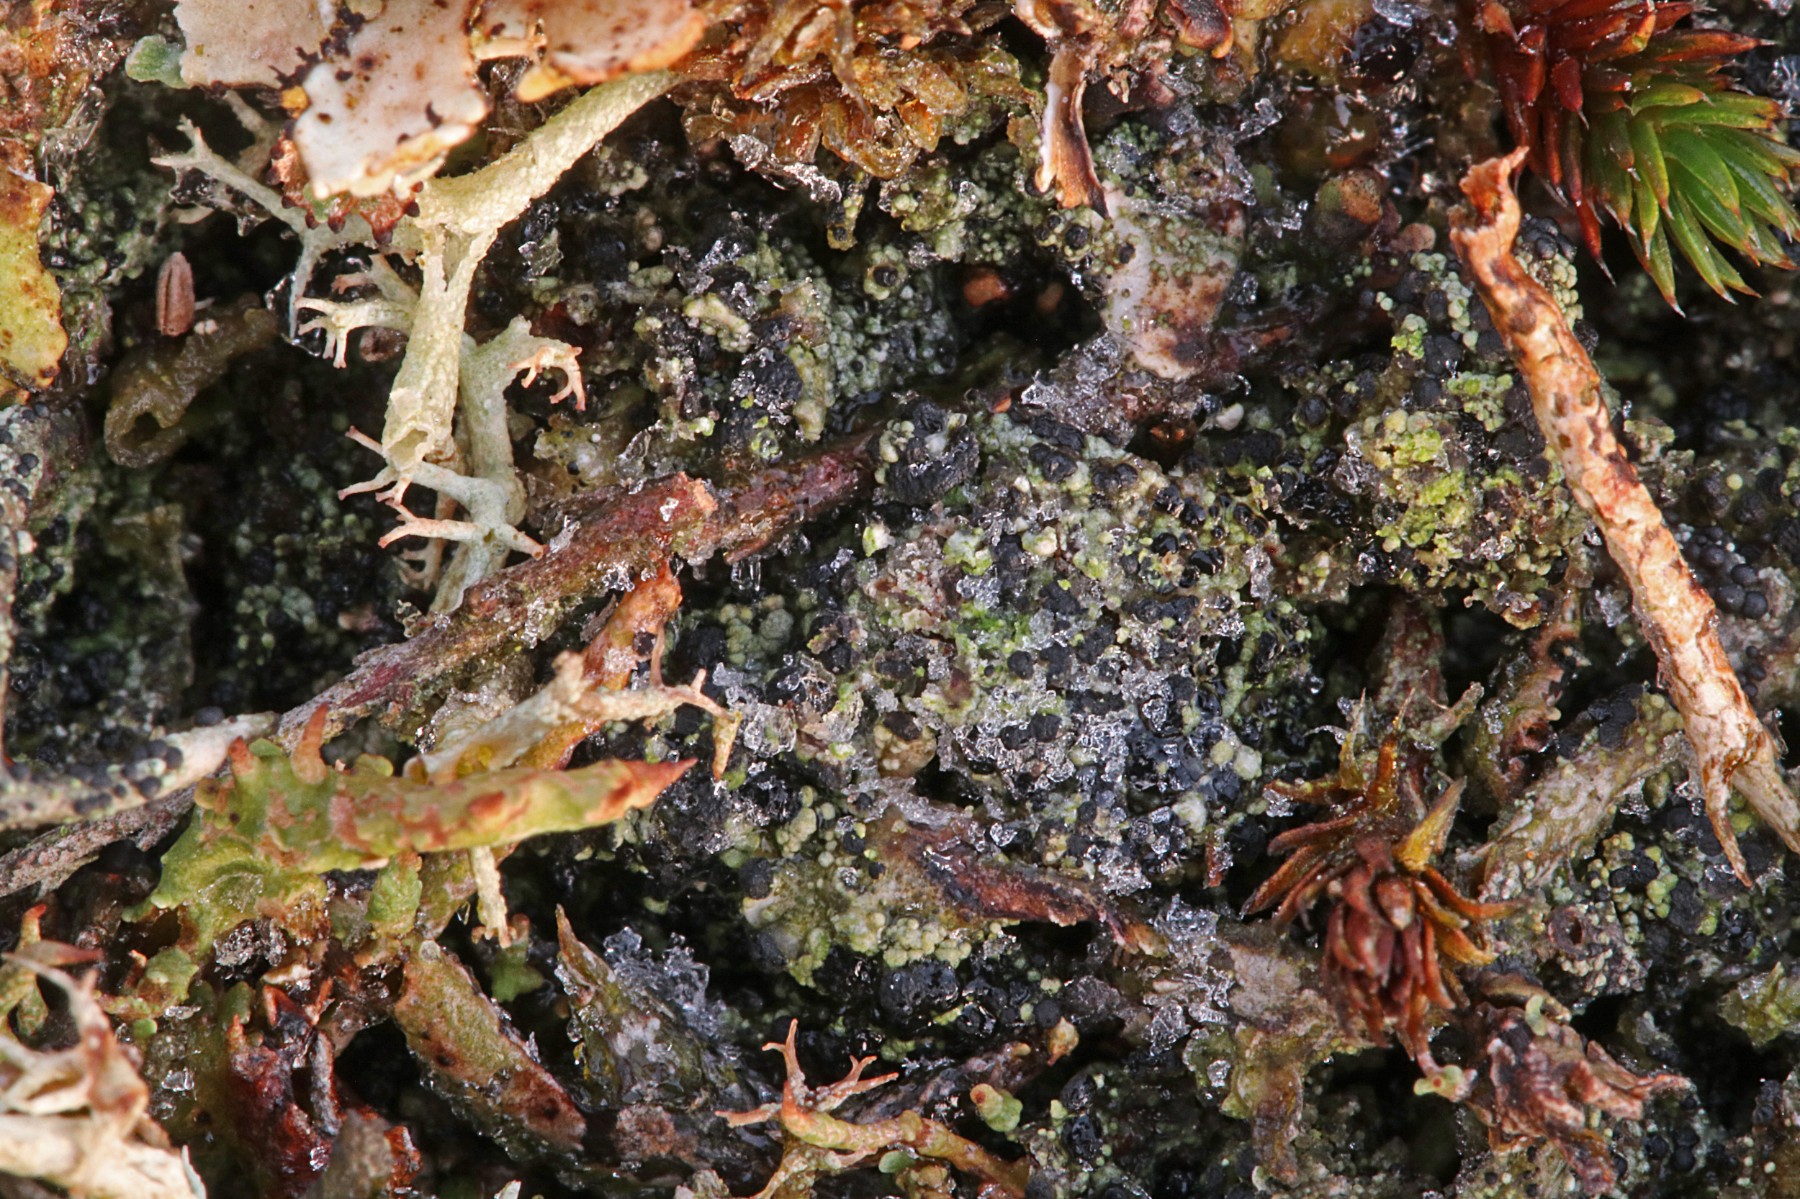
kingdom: Fungi
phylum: Ascomycota
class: Lecanoromycetes
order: Lecanorales
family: Byssolomataceae
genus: Micarea
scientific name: Micarea lignaria
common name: tørve-knaplav
